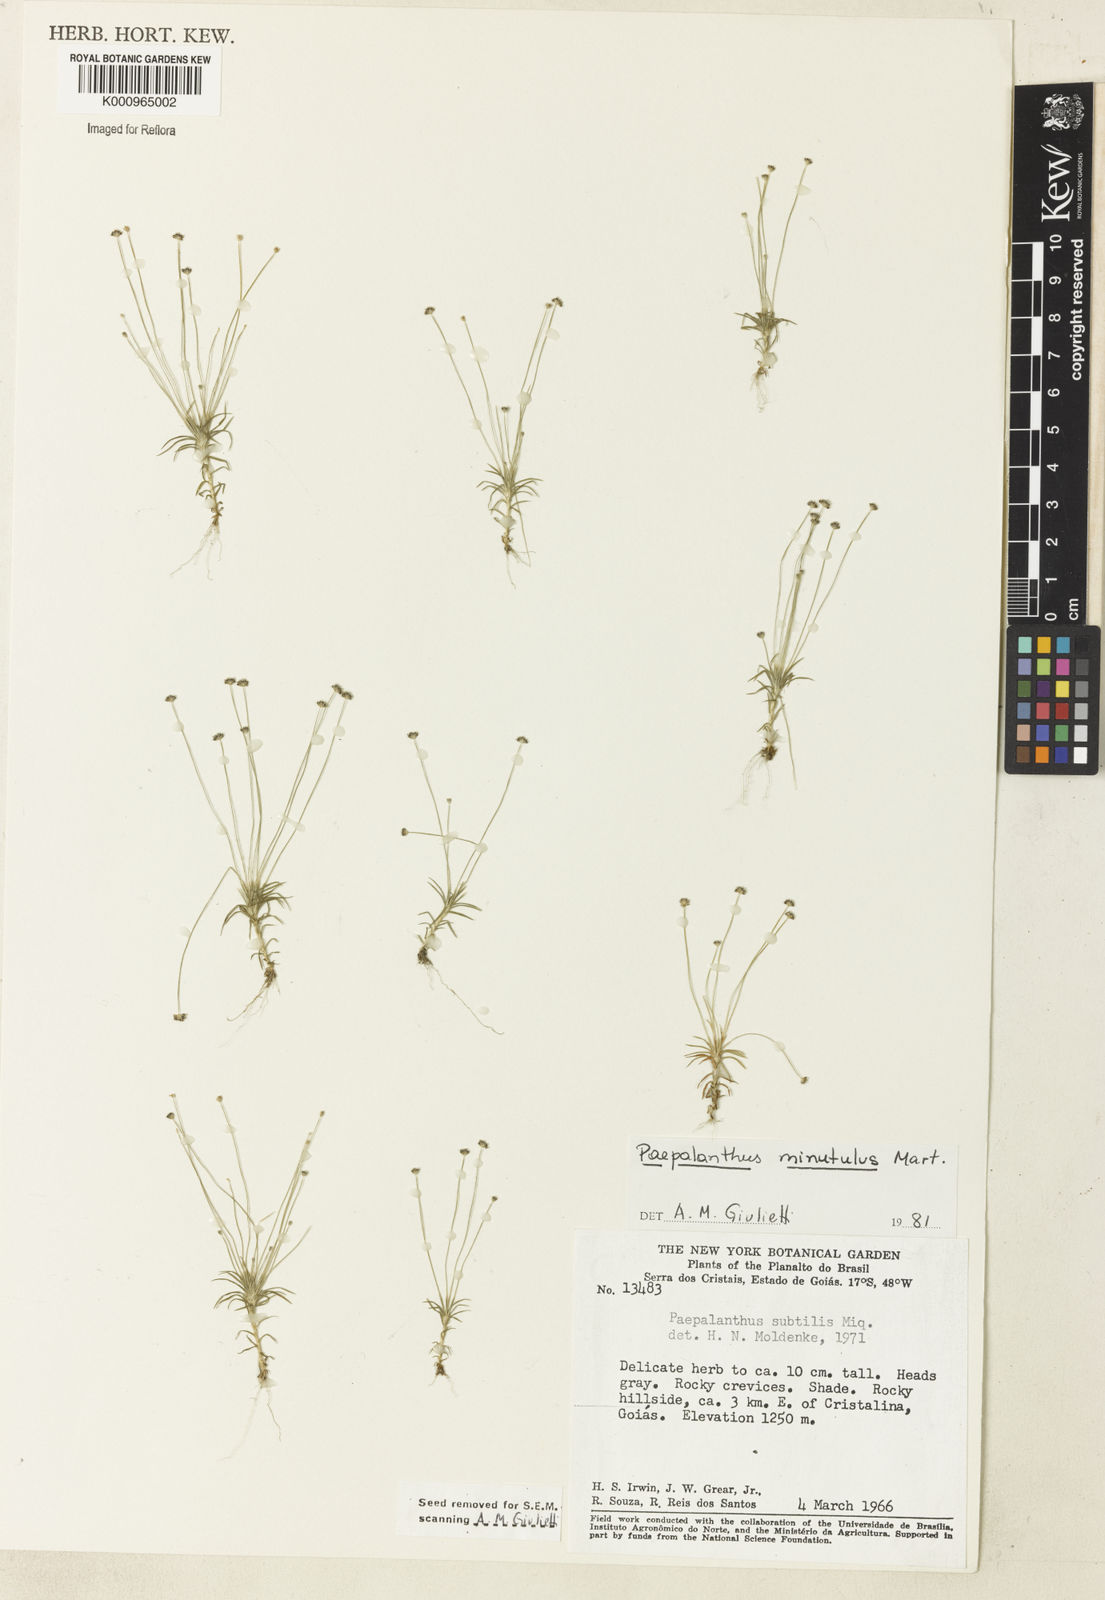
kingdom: Plantae
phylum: Tracheophyta
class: Liliopsida
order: Poales
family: Eriocaulaceae
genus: Paepalanthus
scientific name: Paepalanthus
